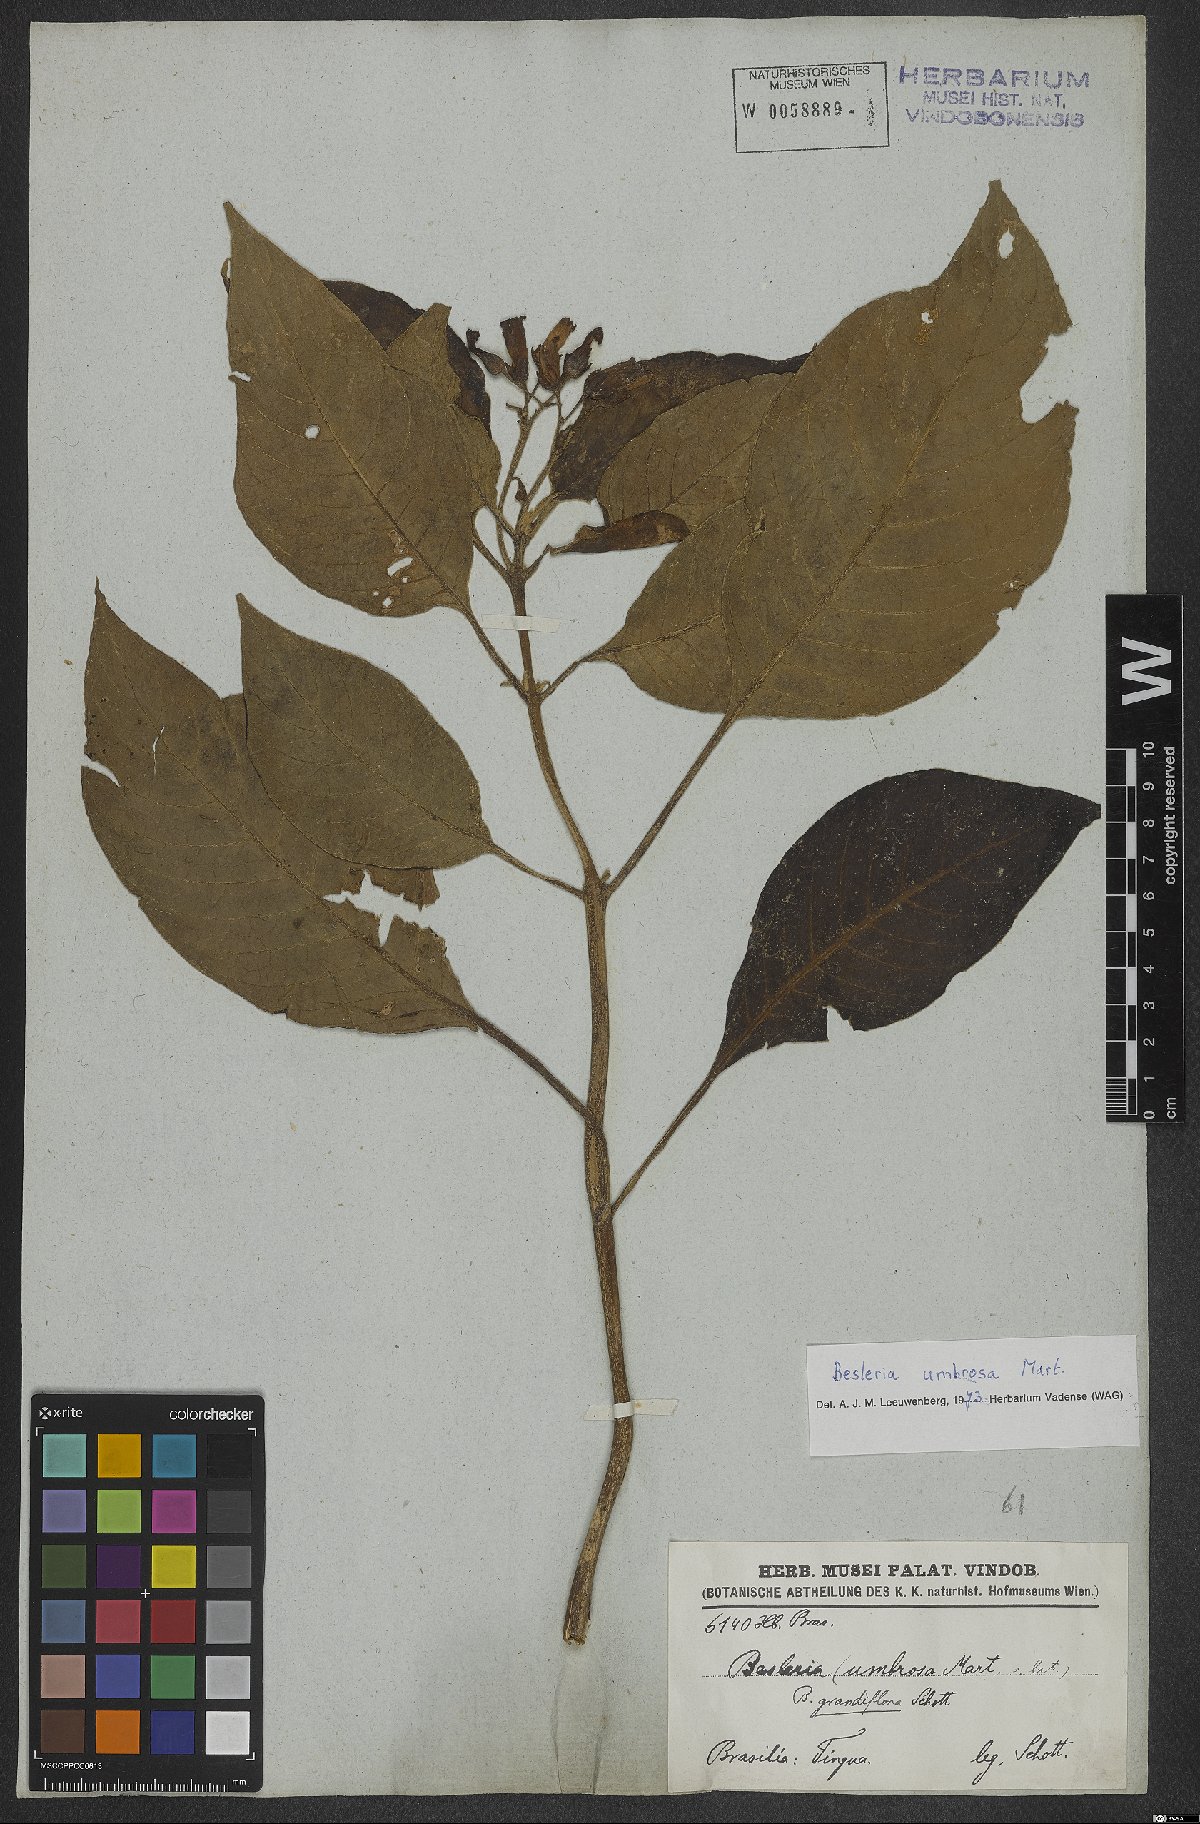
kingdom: Plantae
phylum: Tracheophyta
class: Magnoliopsida
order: Lamiales
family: Gesneriaceae
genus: Besleria
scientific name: Besleria umbrosa
